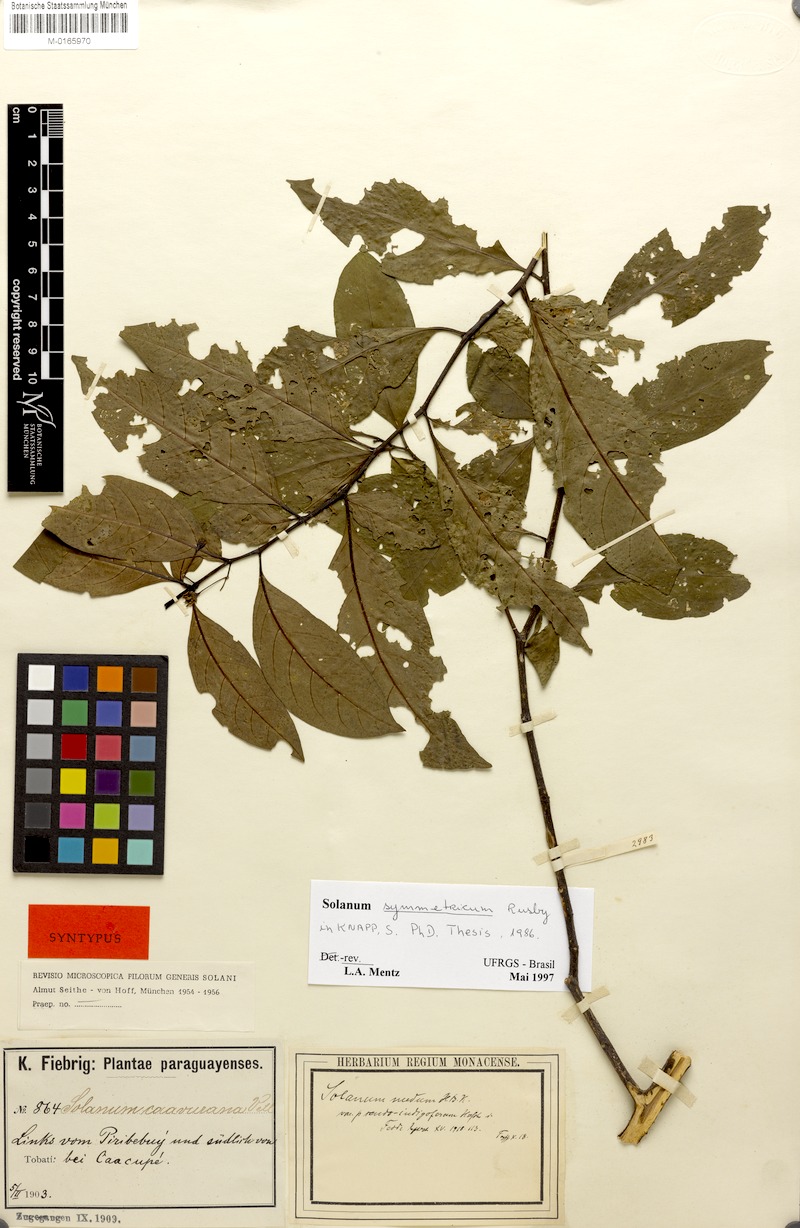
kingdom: Plantae
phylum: Tracheophyta
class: Magnoliopsida
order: Solanales
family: Solanaceae
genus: Solanum
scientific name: Solanum symmetricum
